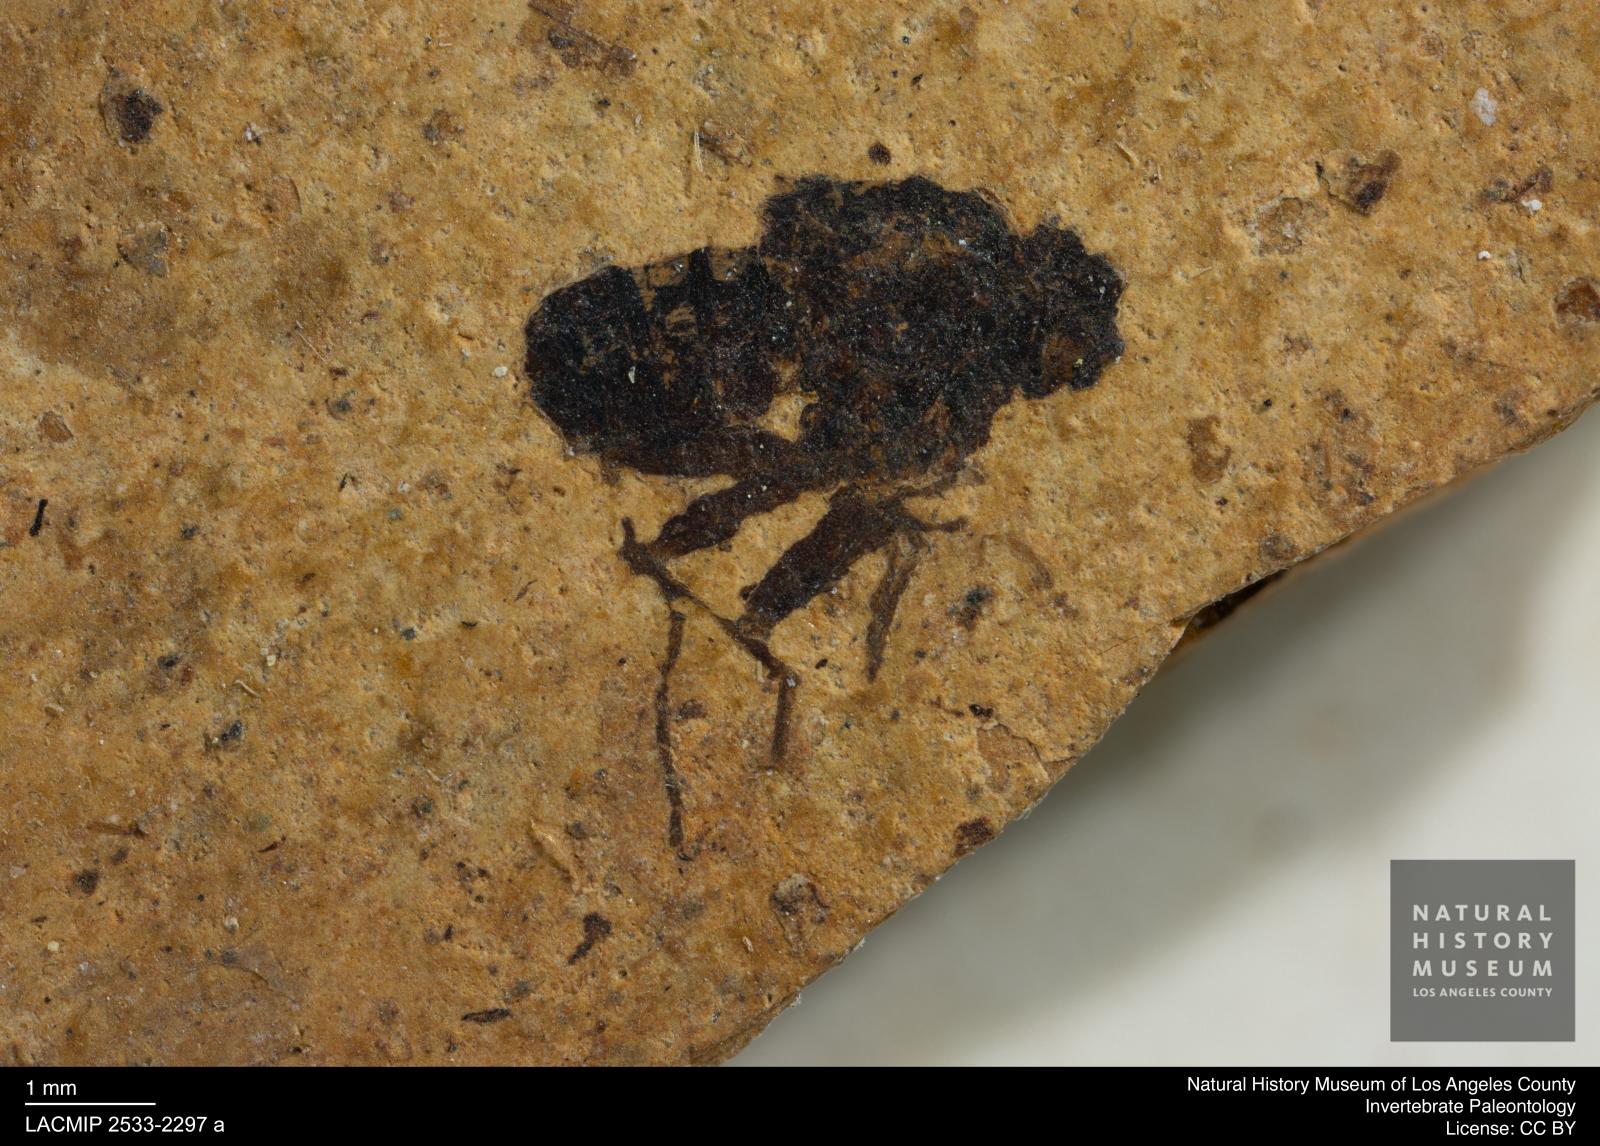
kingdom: Animalia
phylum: Arthropoda
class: Insecta
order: Diptera
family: Heleomyzidae
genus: Heleomyza
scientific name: Heleomyza Leria bauckhorni
